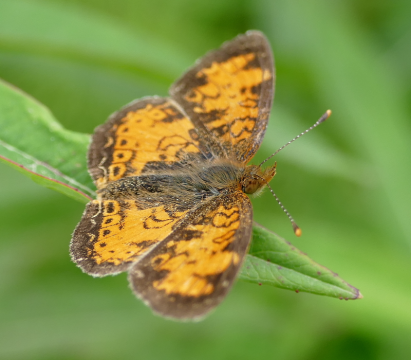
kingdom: Animalia
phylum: Arthropoda
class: Insecta
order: Lepidoptera
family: Nymphalidae
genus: Phyciodes
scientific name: Phyciodes tharos
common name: Northern Crescent
